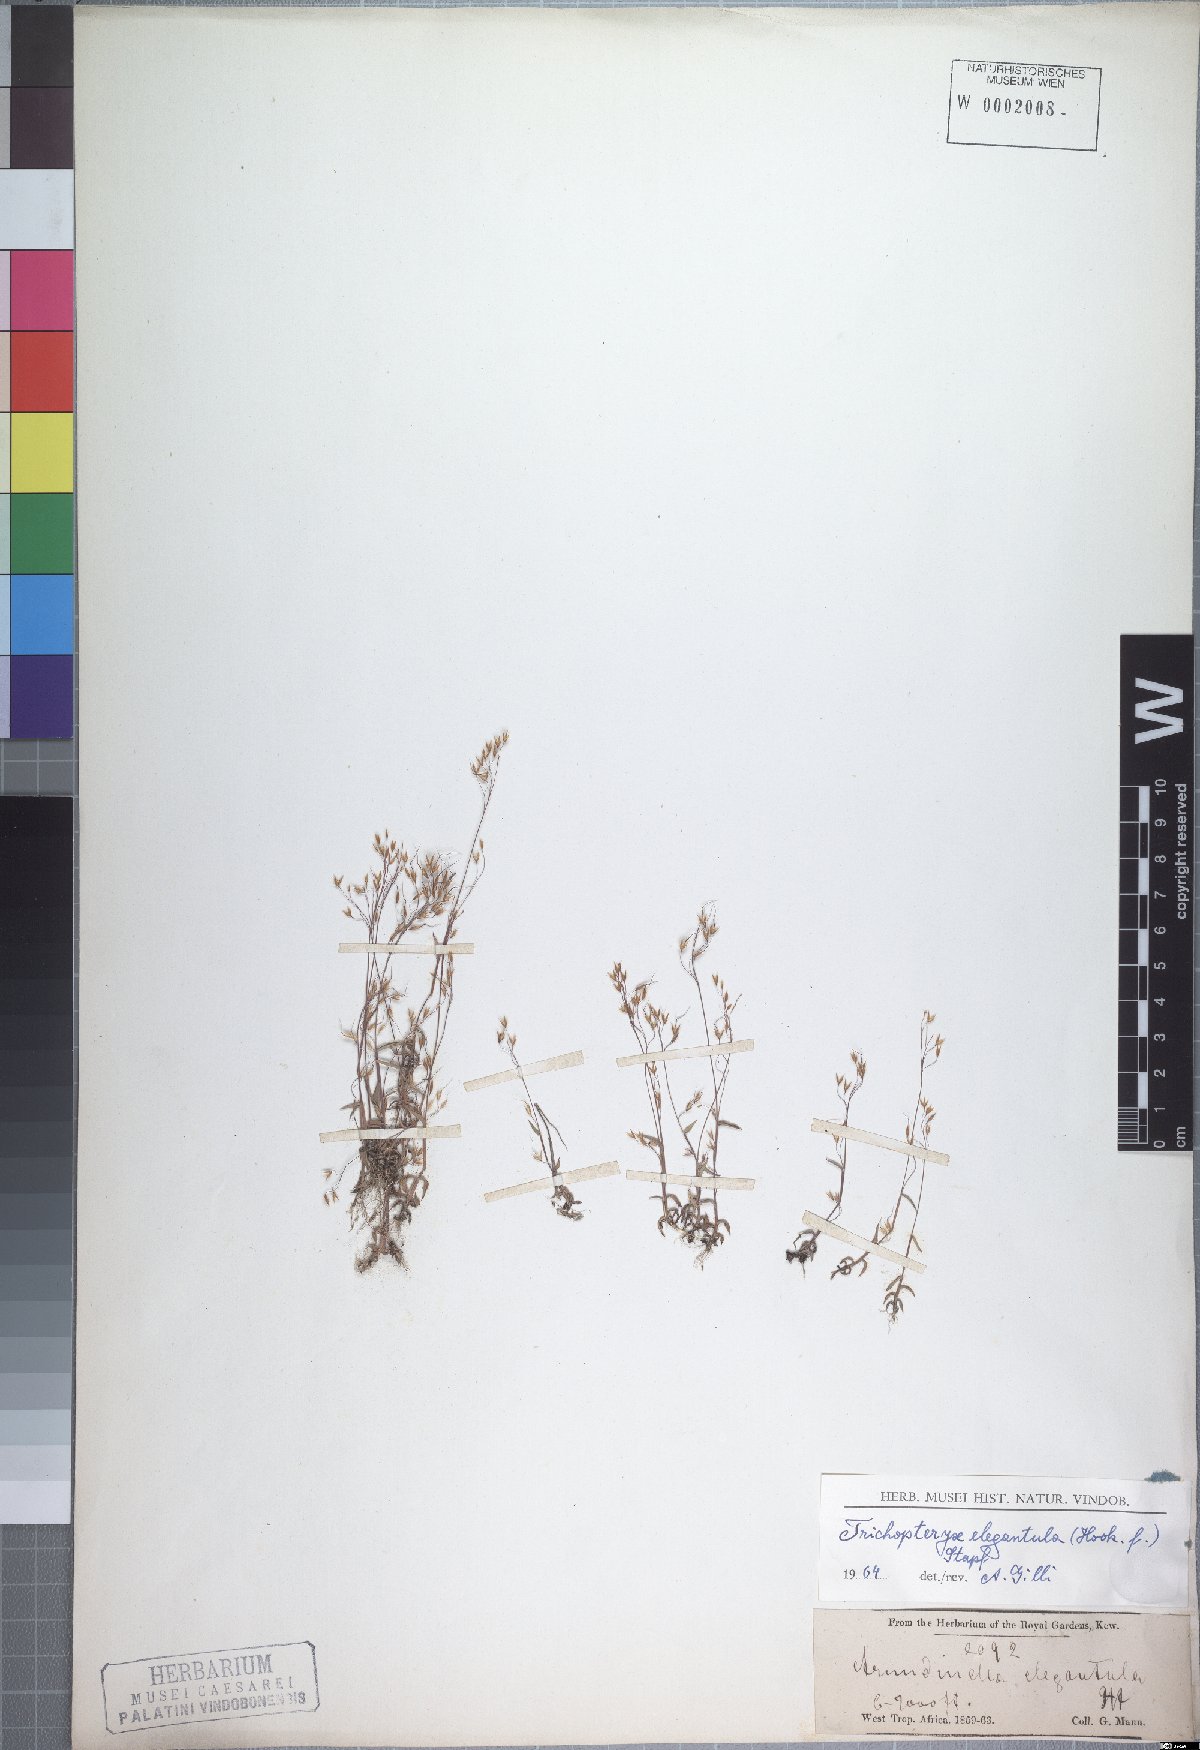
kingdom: Plantae
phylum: Tracheophyta
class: Liliopsida
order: Poales
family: Poaceae
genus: Trichopteryx
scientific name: Trichopteryx elegantula
